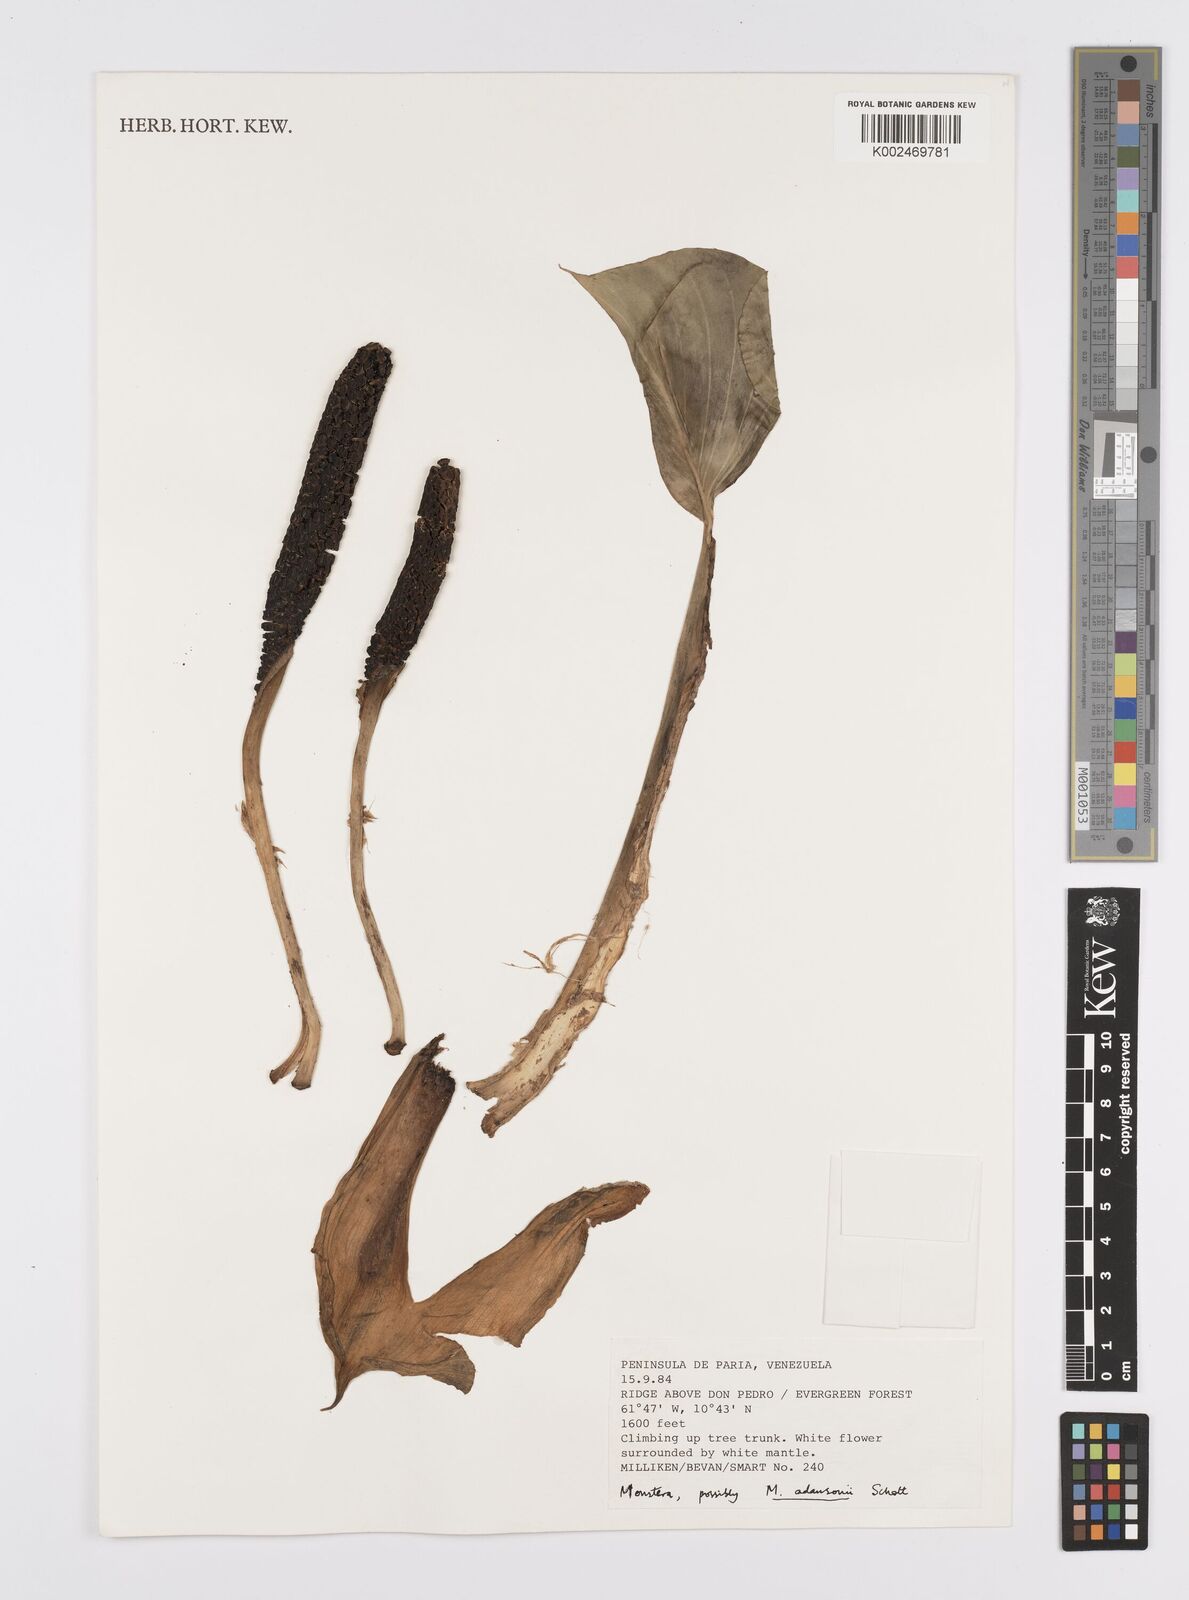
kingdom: Plantae
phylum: Tracheophyta
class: Liliopsida
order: Alismatales
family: Araceae
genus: Monstera
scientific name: Monstera adansonii
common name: Tarovine
